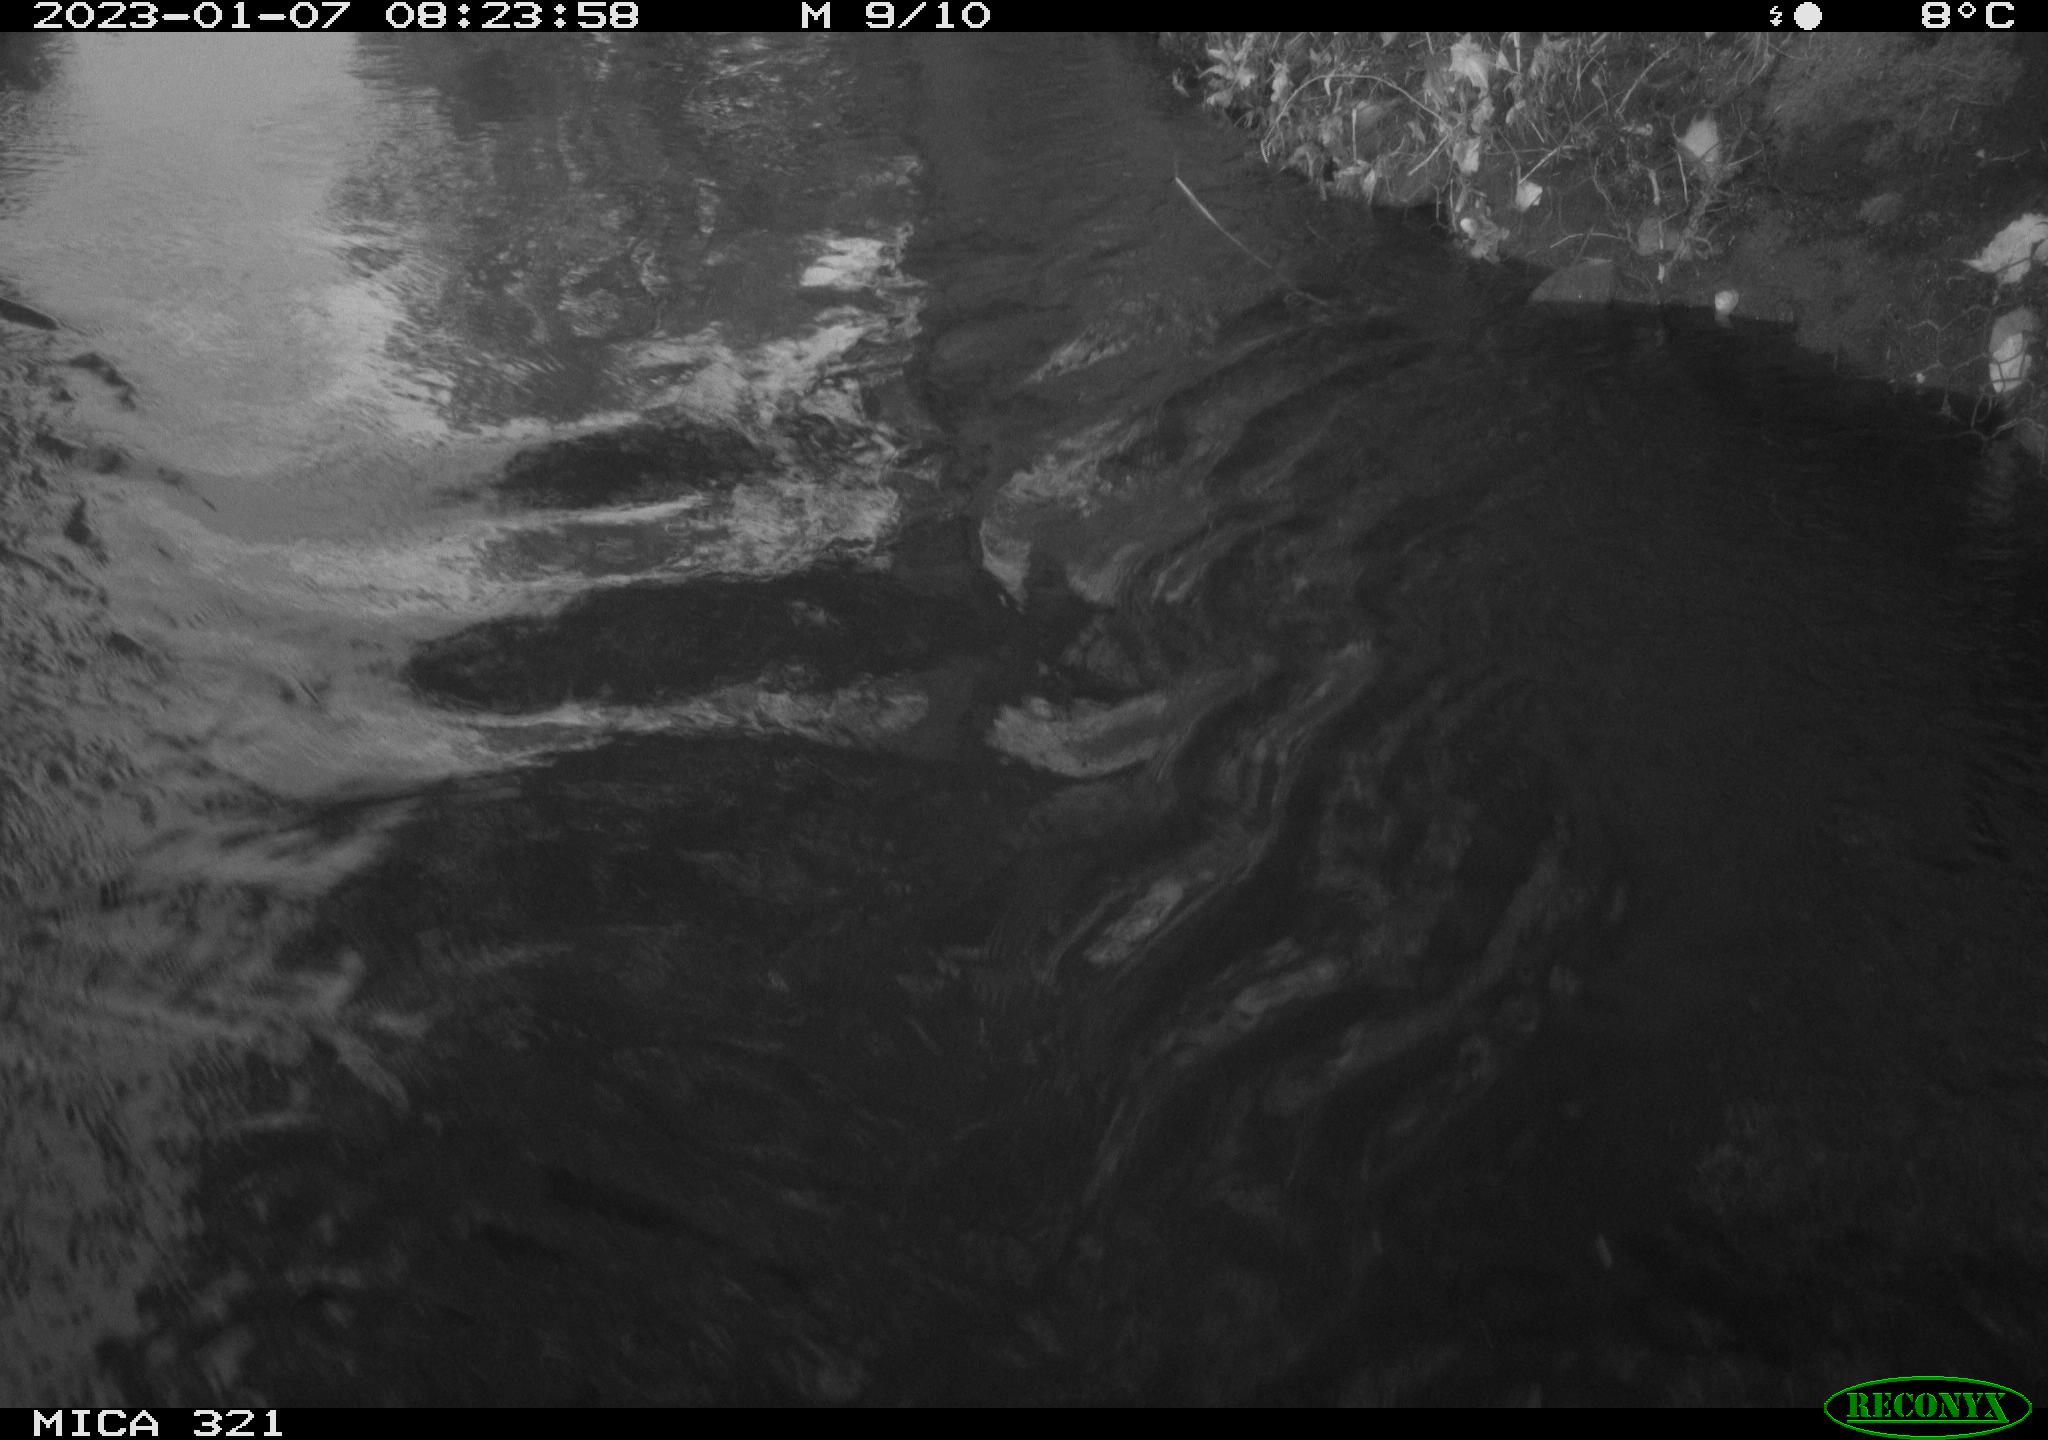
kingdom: Animalia
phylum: Chordata
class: Aves
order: Anseriformes
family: Anatidae
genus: Anas
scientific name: Anas
